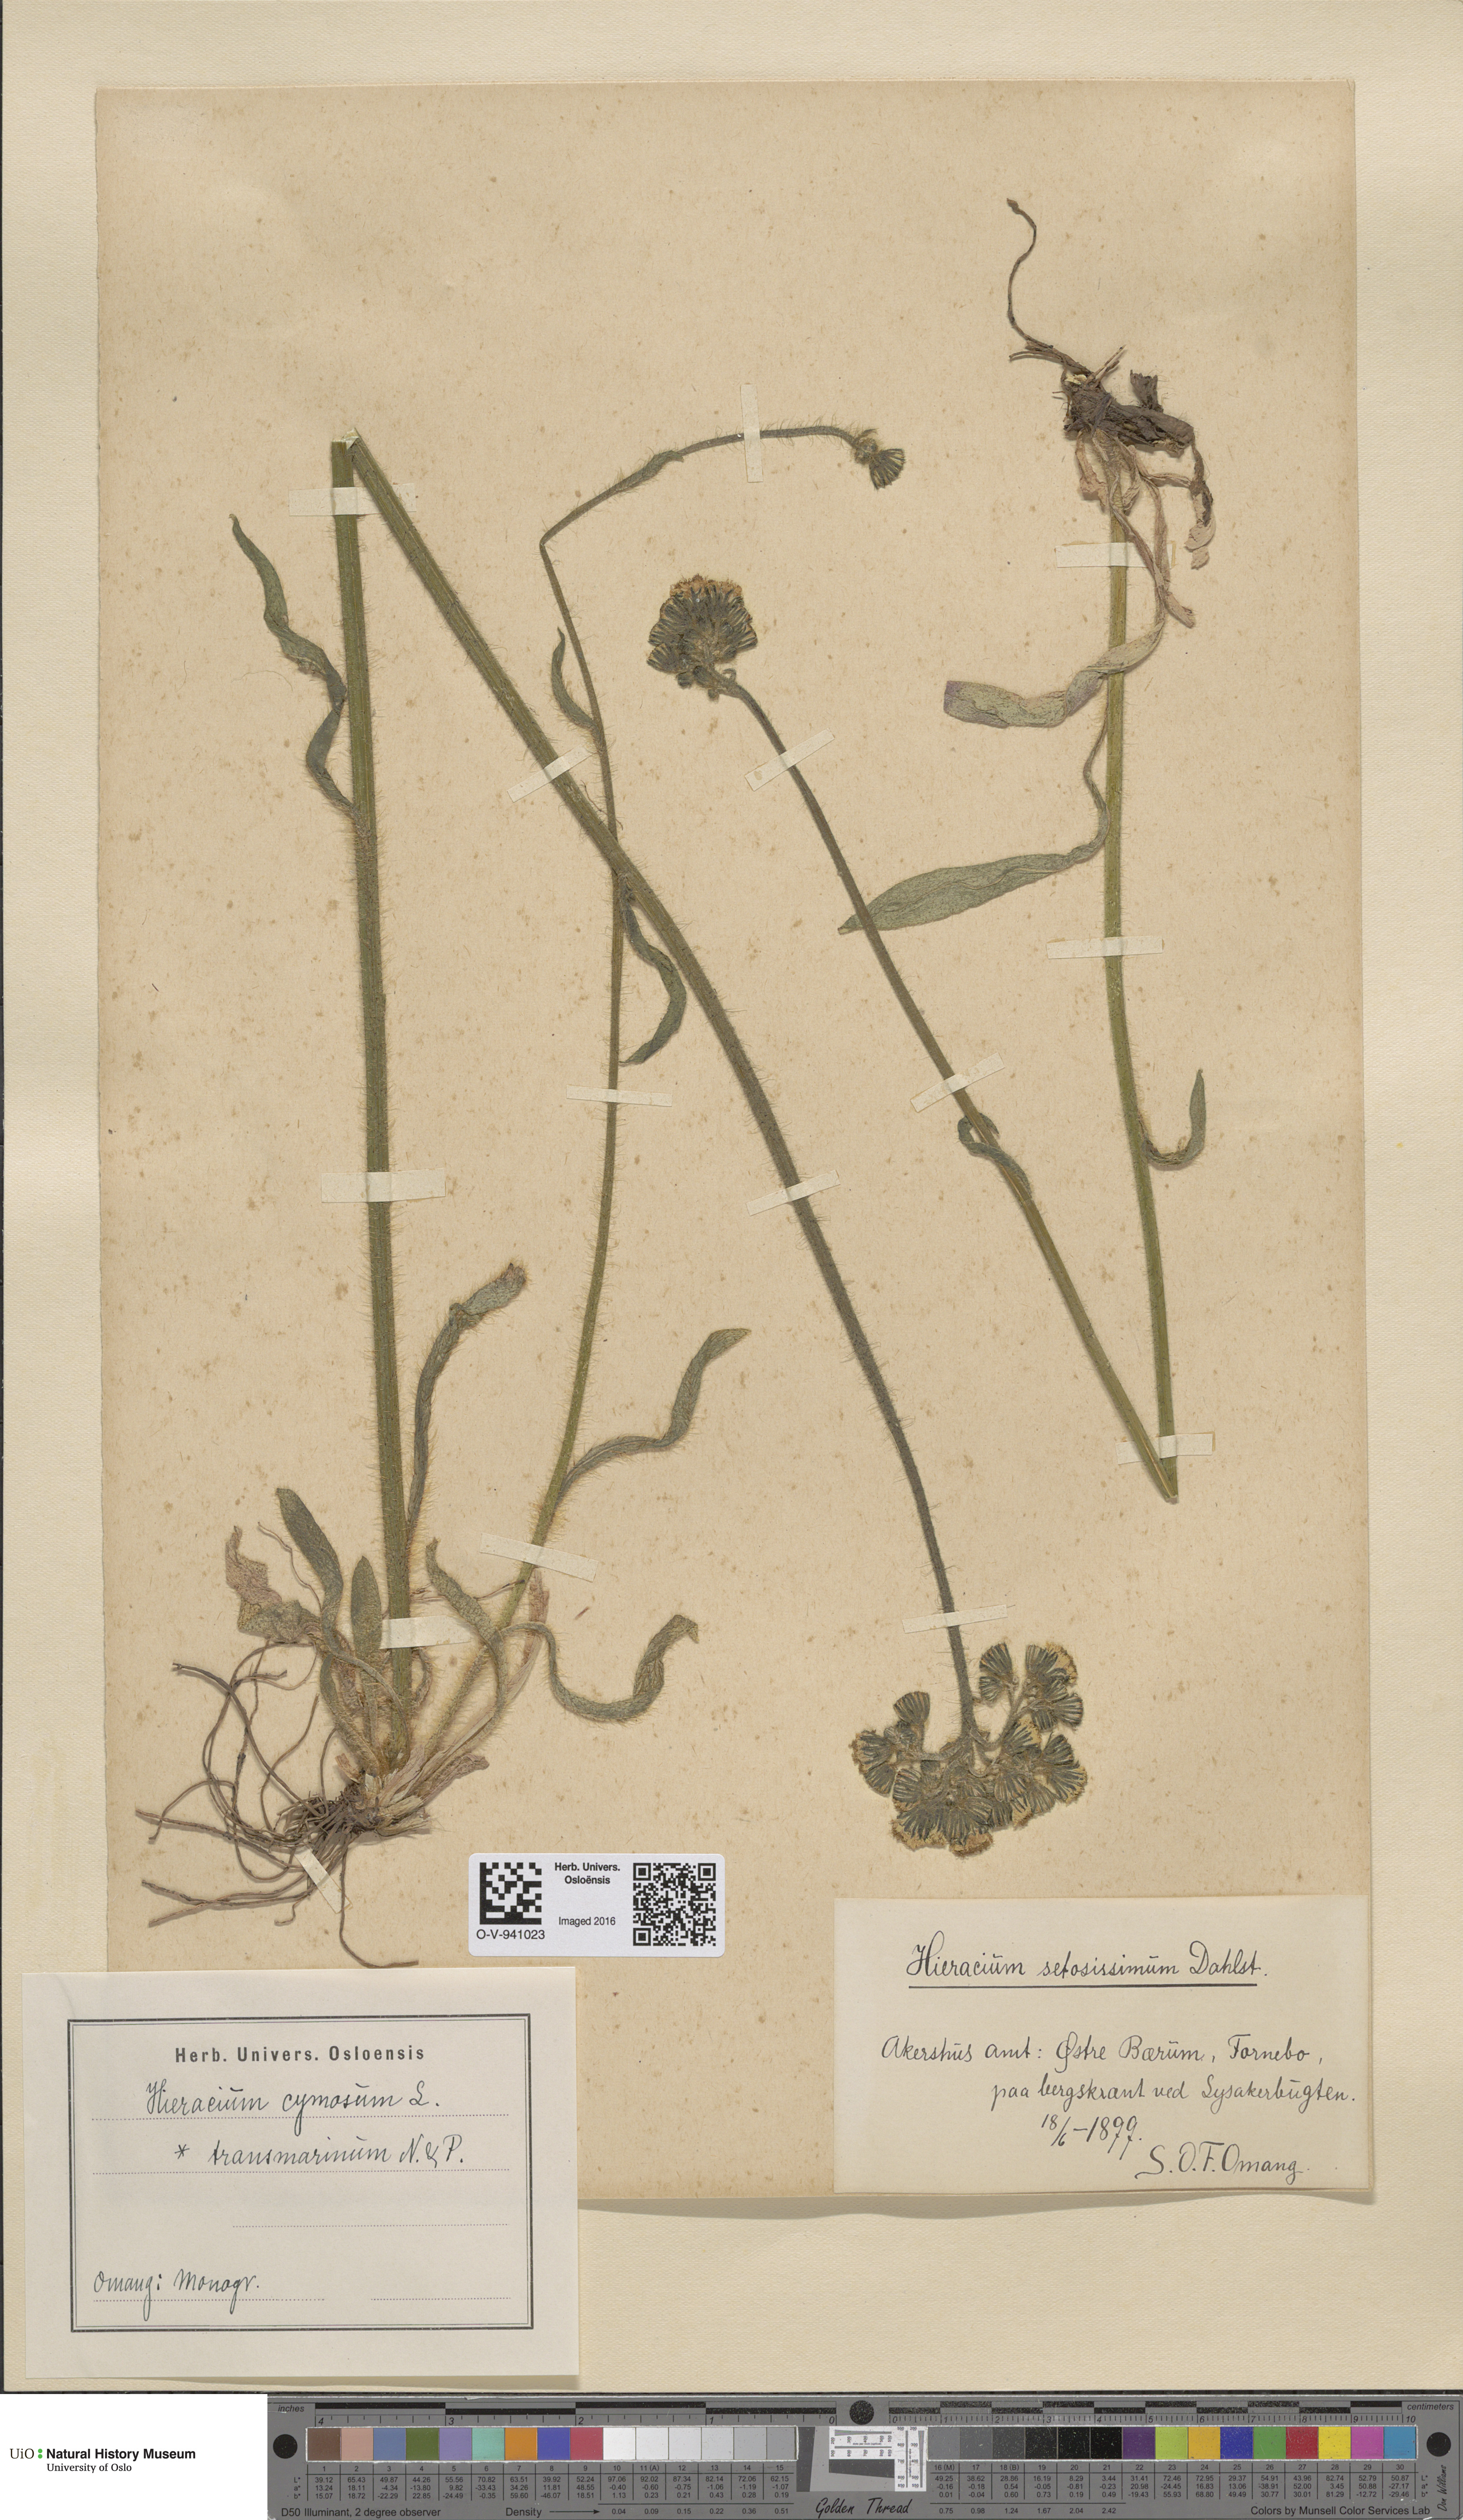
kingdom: Plantae
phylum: Tracheophyta
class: Magnoliopsida
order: Asterales
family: Asteraceae
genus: Pilosella
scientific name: Pilosella cymosa
